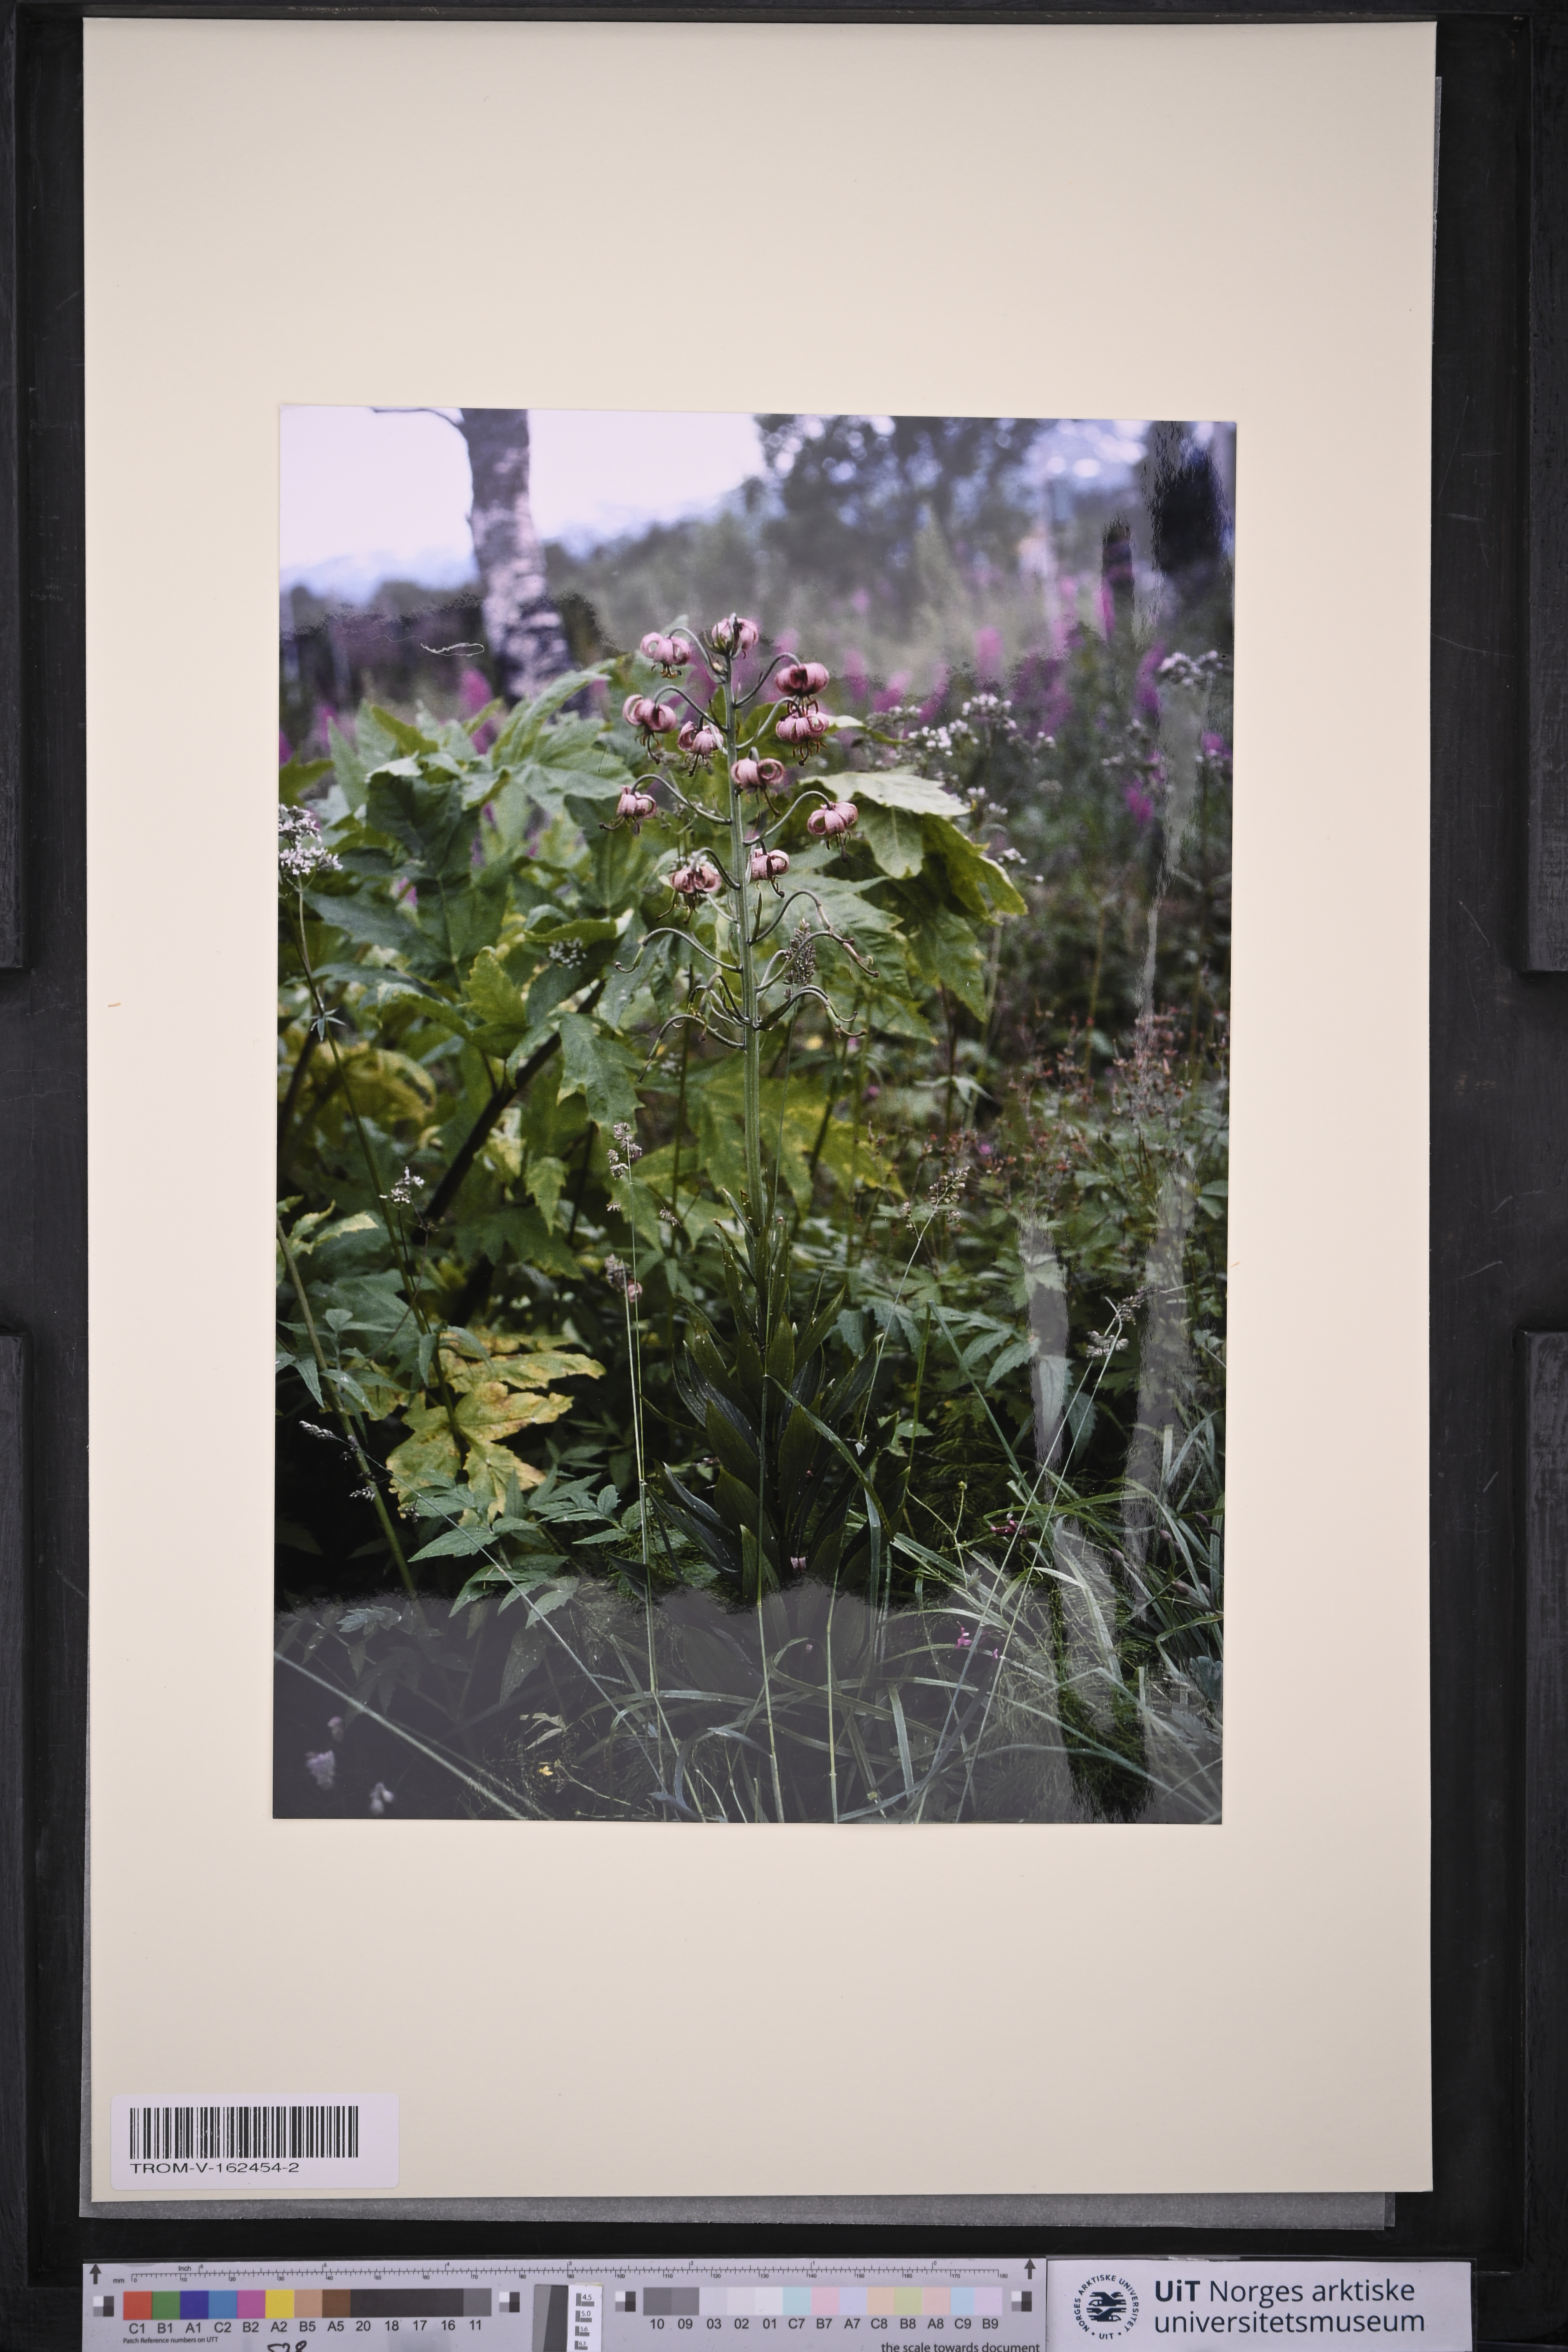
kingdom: Plantae
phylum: Tracheophyta
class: Liliopsida
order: Liliales
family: Liliaceae
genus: Lilium
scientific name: Lilium martagon
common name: Martagon lily
